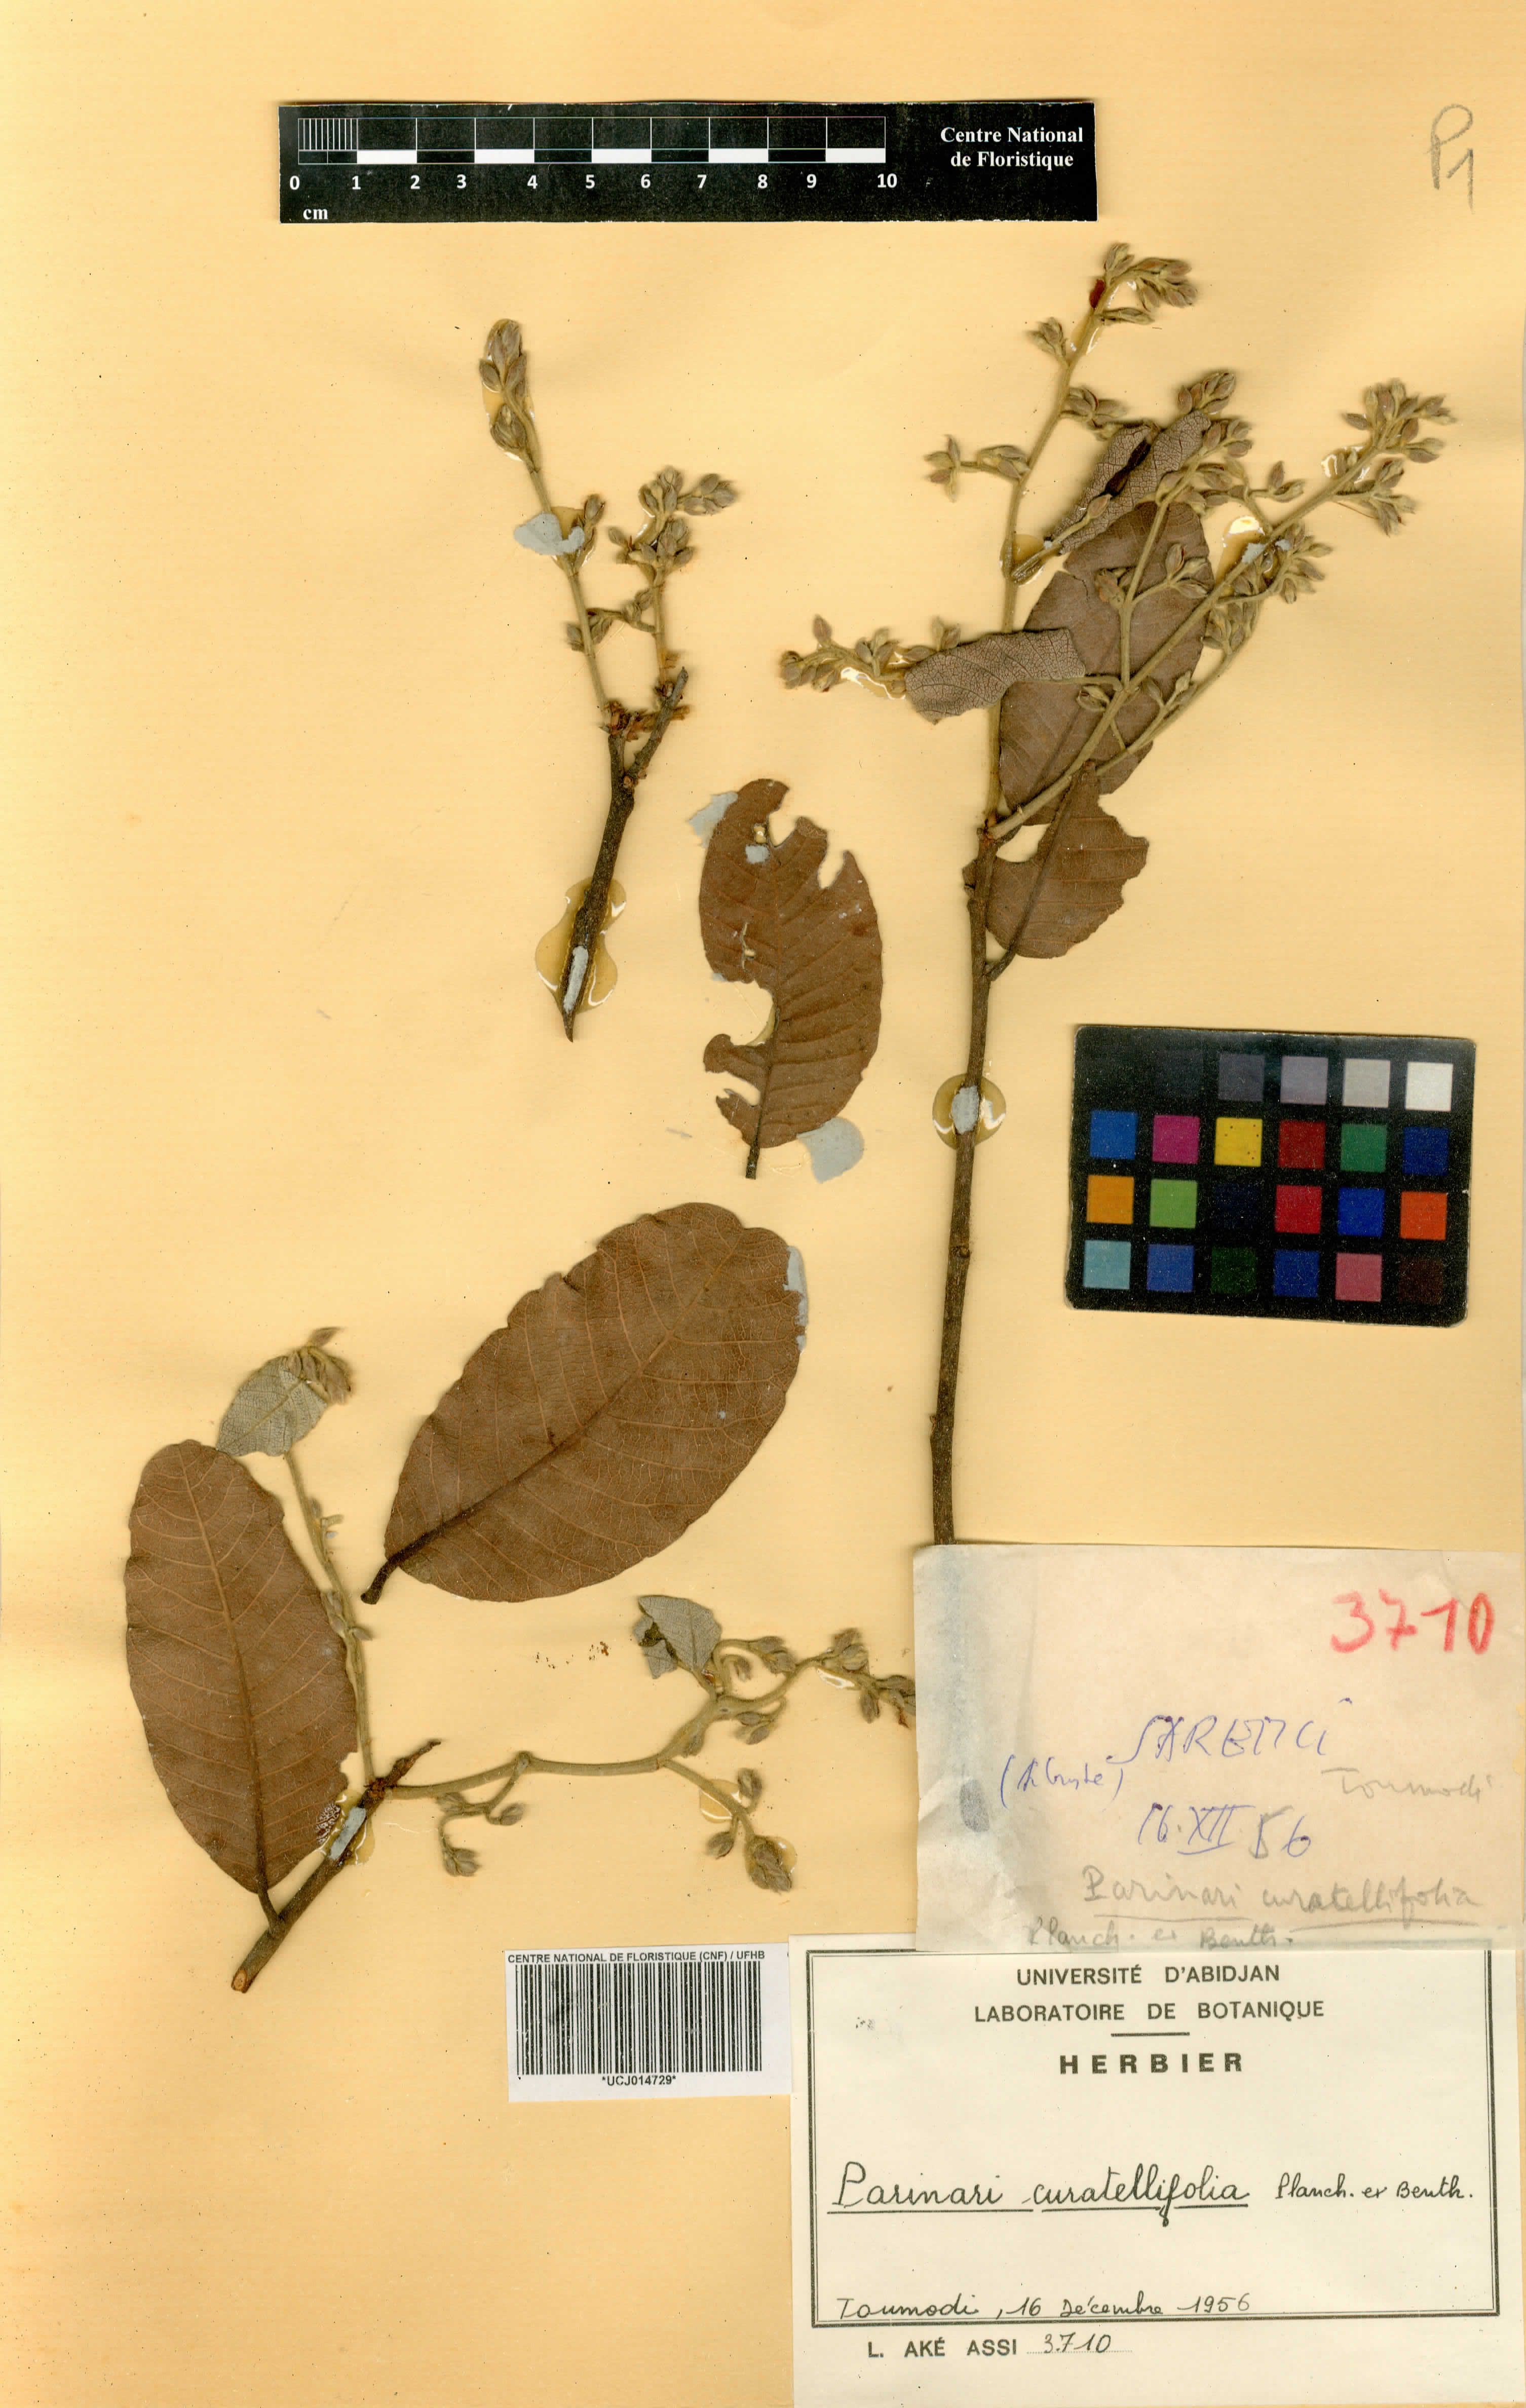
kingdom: Plantae
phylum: Tracheophyta
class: Magnoliopsida
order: Malpighiales
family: Chrysobalanaceae
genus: Parinari
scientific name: Parinari curatellifolia
